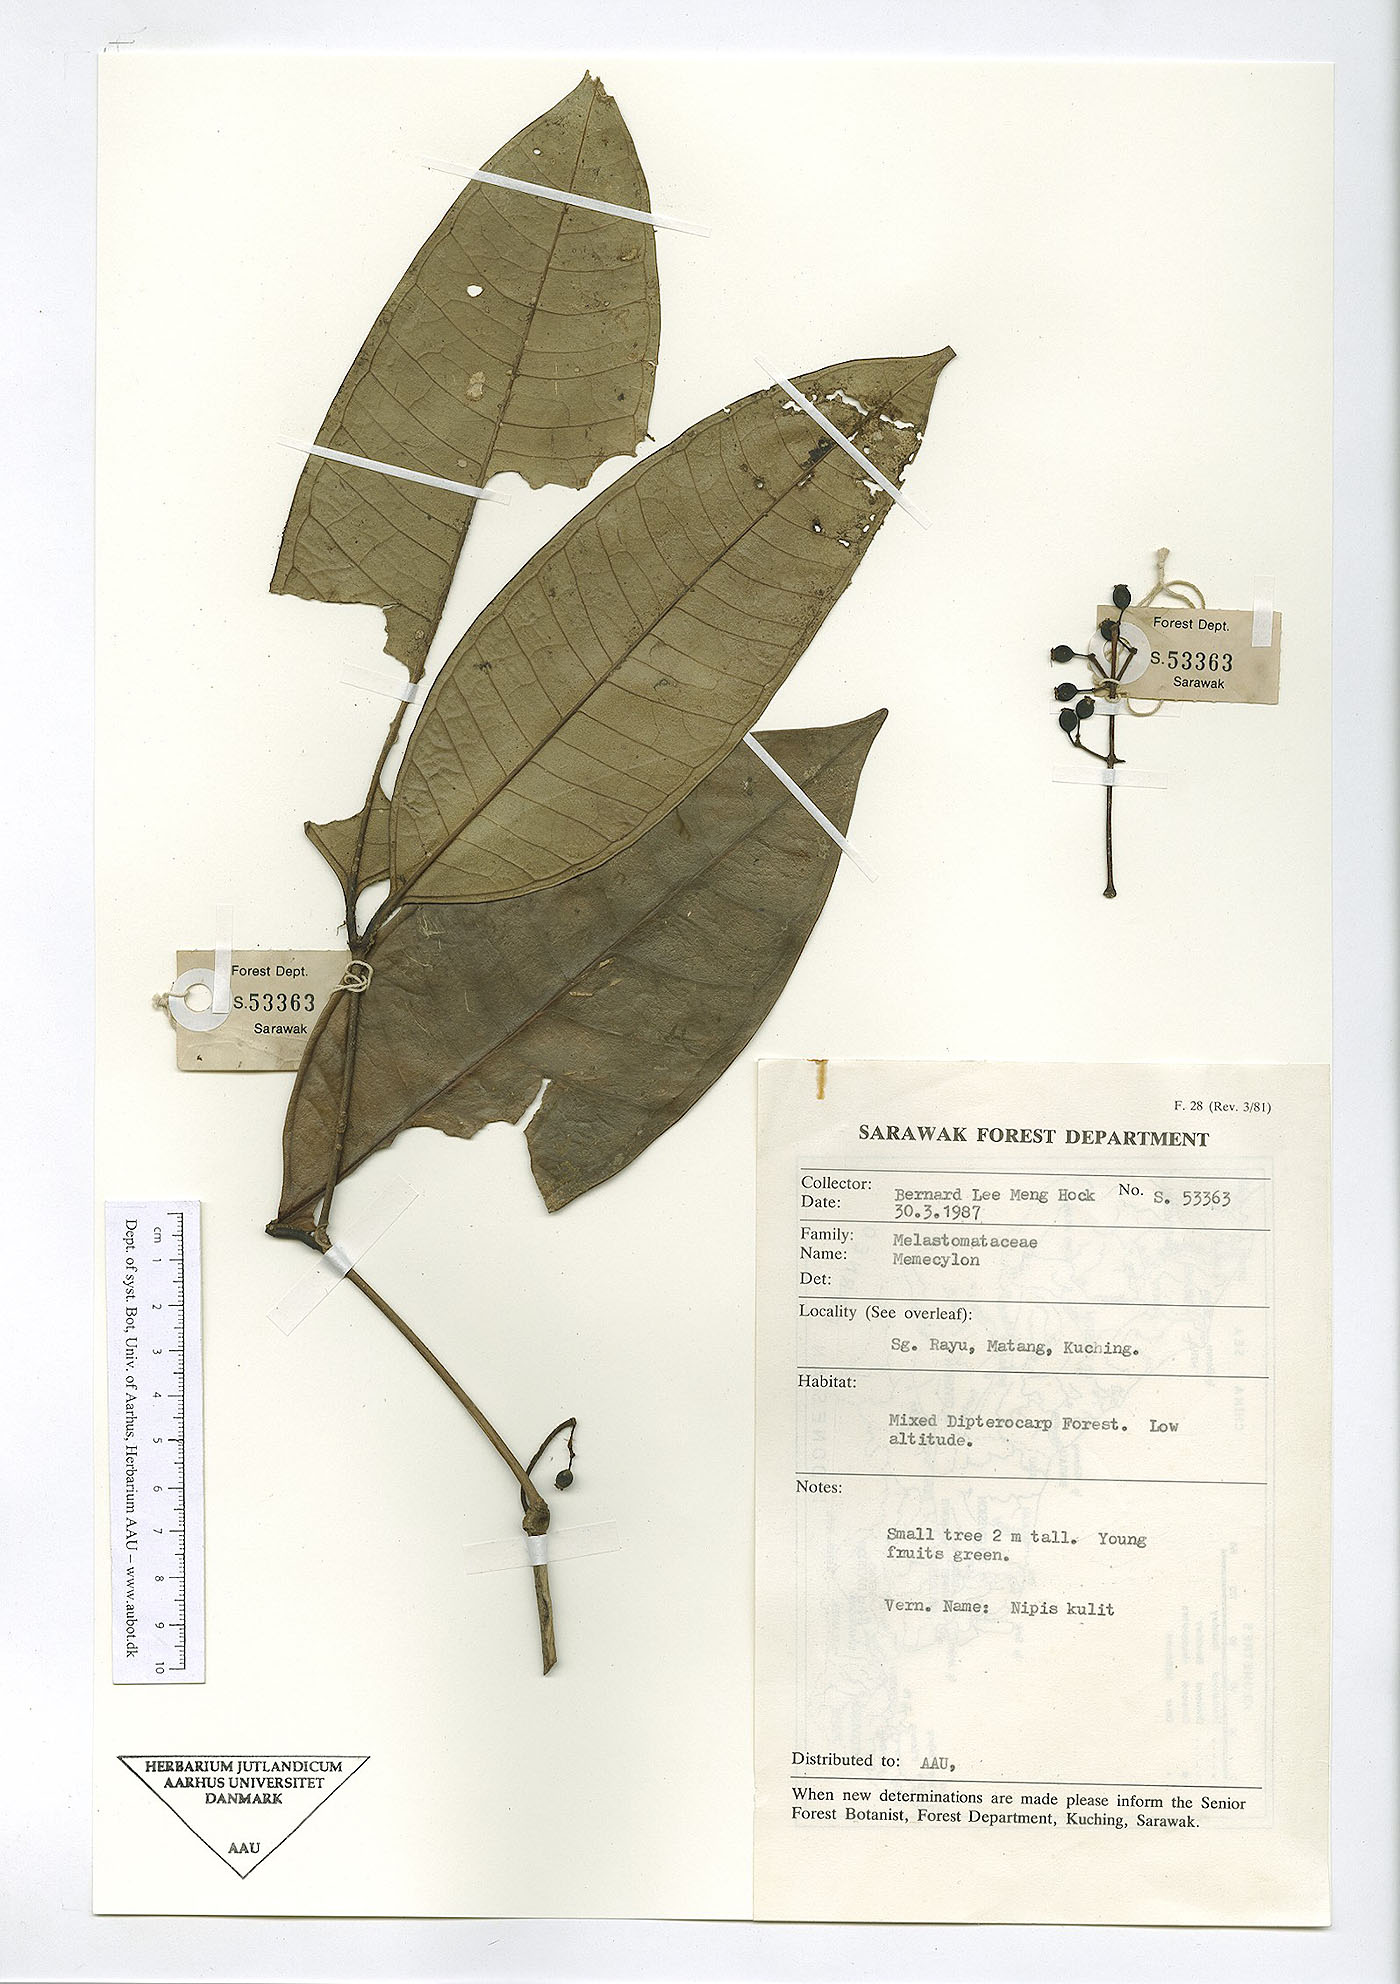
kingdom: Plantae
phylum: Tracheophyta
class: Magnoliopsida
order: Myrtales
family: Melastomataceae
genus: Memecylon
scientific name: Memecylon
